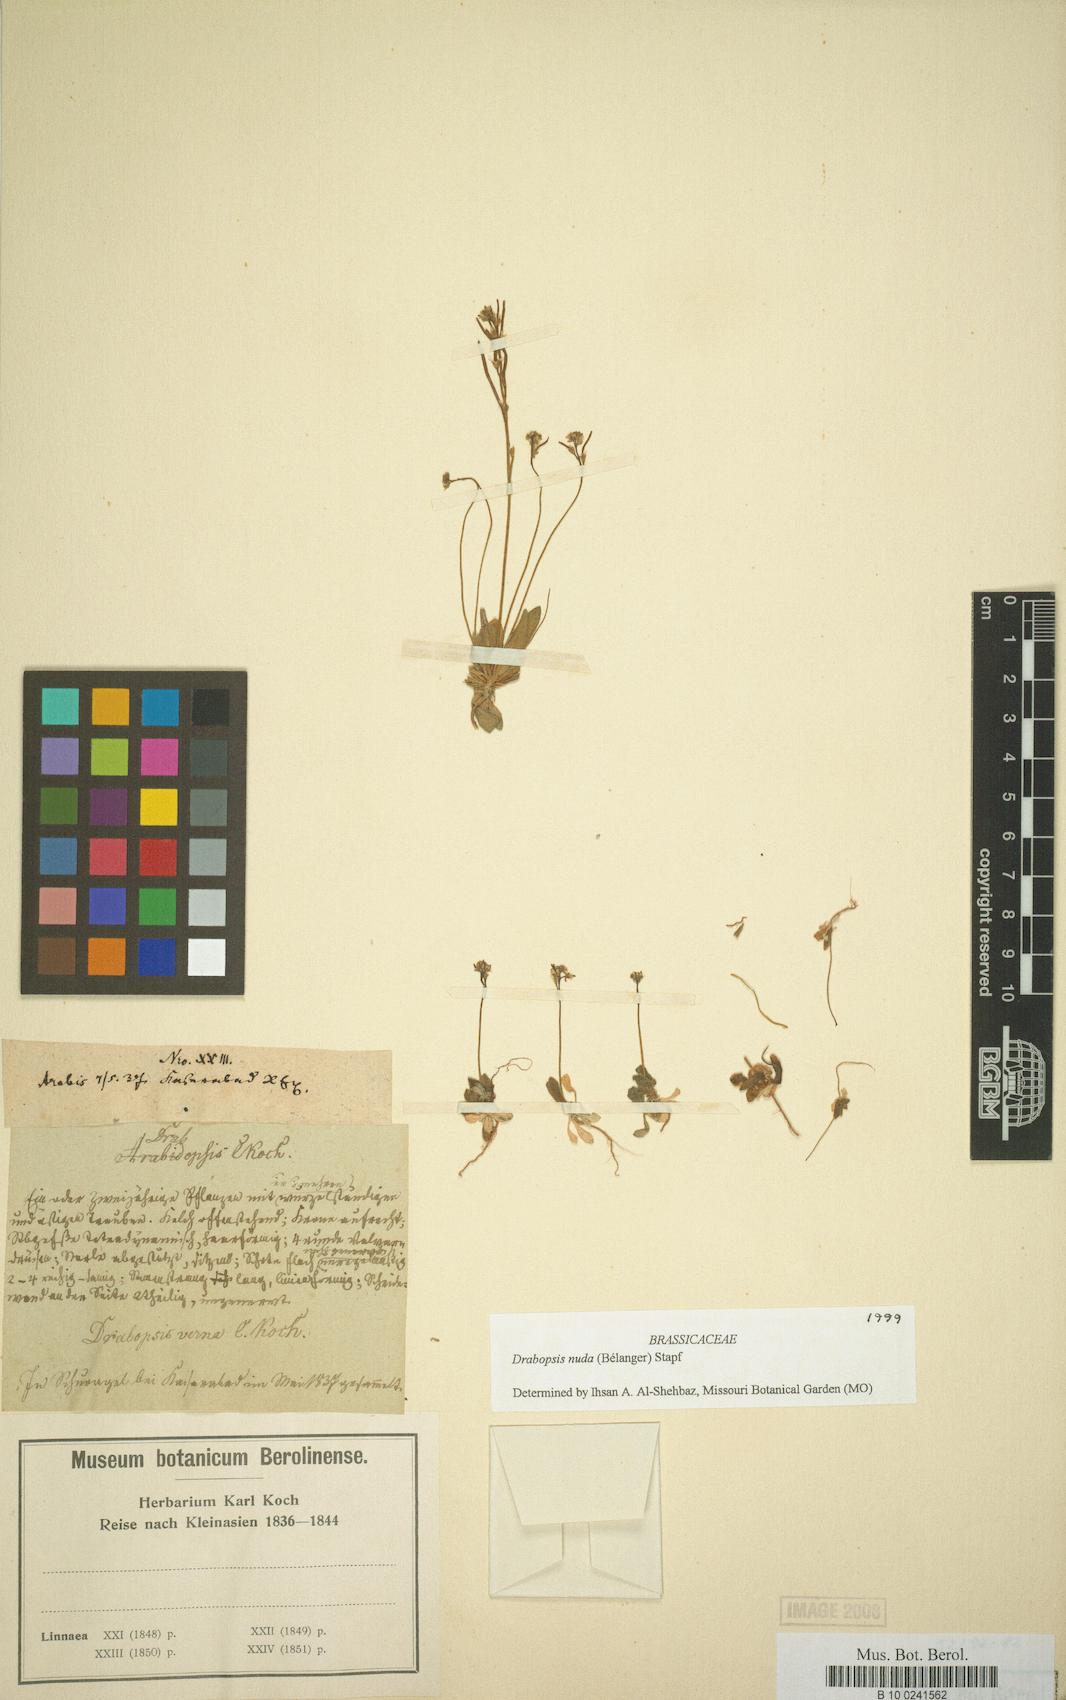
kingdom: Plantae
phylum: Tracheophyta
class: Magnoliopsida
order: Brassicales
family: Brassicaceae
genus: Draba
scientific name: Draba nuda
